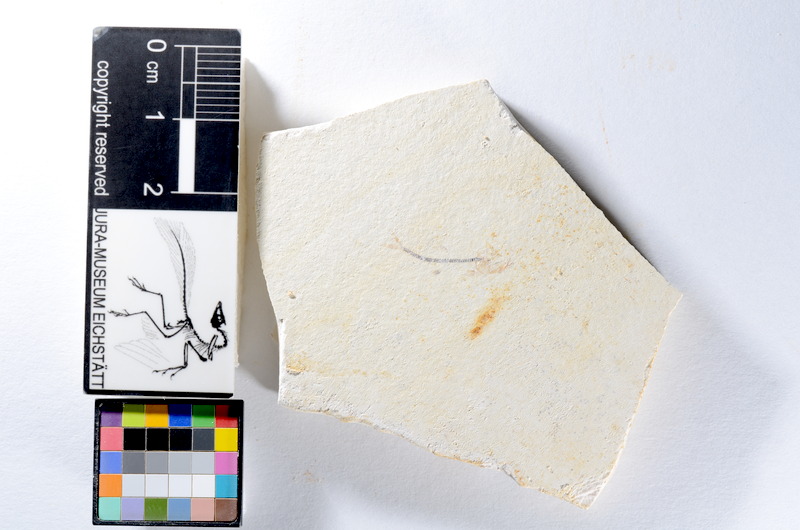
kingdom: Animalia
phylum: Chordata
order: Salmoniformes
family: Orthogonikleithridae
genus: Orthogonikleithrus
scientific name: Orthogonikleithrus hoelli
